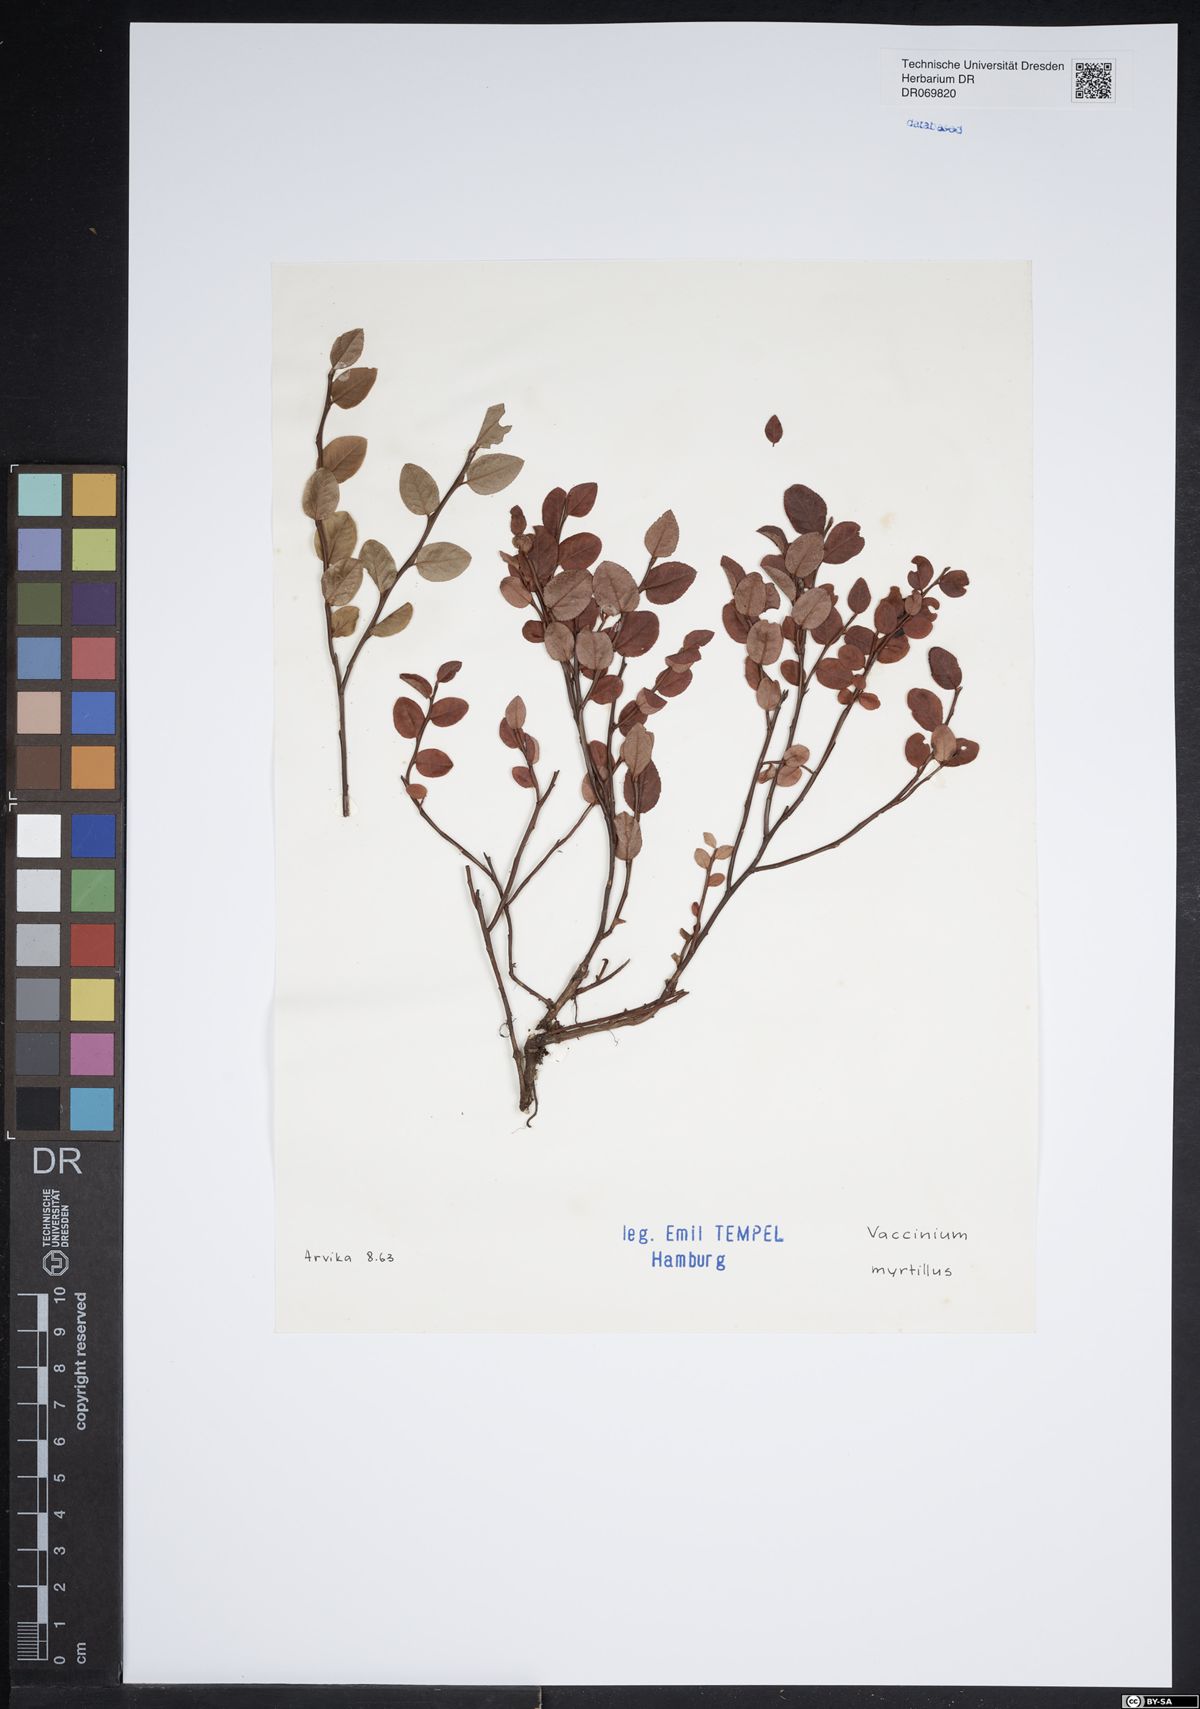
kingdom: Plantae
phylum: Tracheophyta
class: Magnoliopsida
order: Ericales
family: Ericaceae
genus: Vaccinium
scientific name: Vaccinium myrtillus
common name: Bilberry
